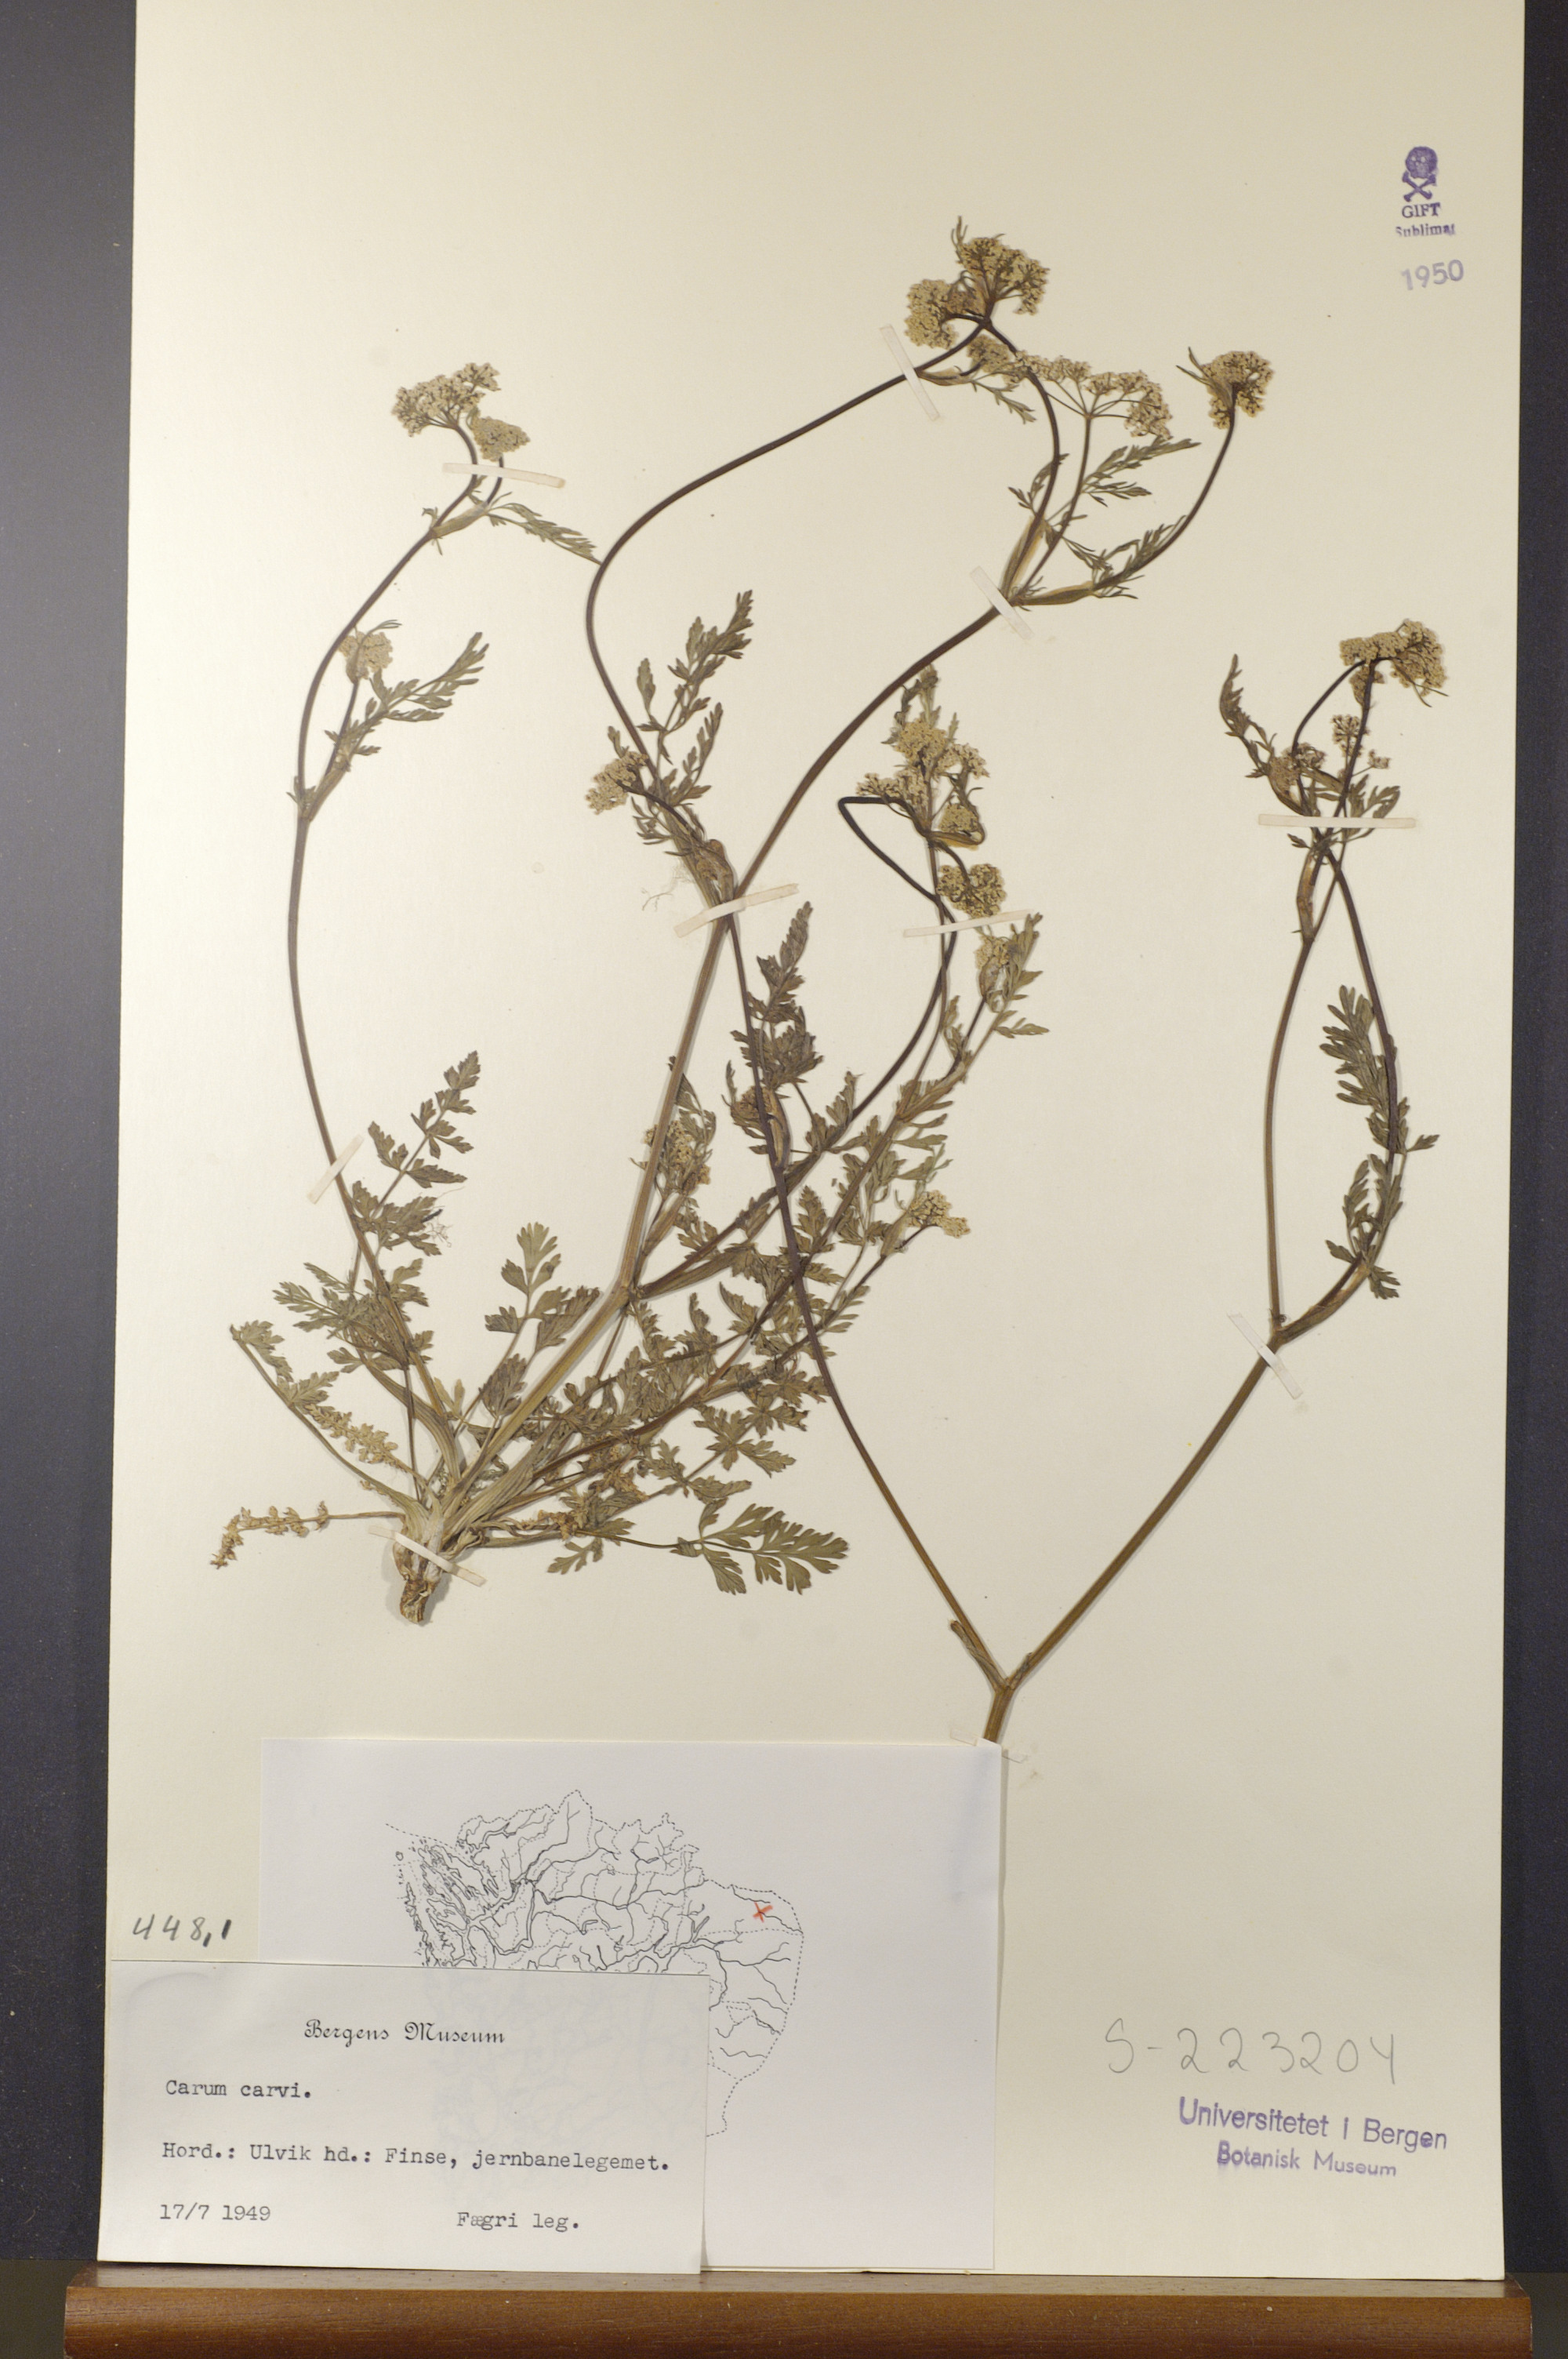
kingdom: Plantae
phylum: Tracheophyta
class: Magnoliopsida
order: Apiales
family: Apiaceae
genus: Carum
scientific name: Carum carvi
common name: Caraway
